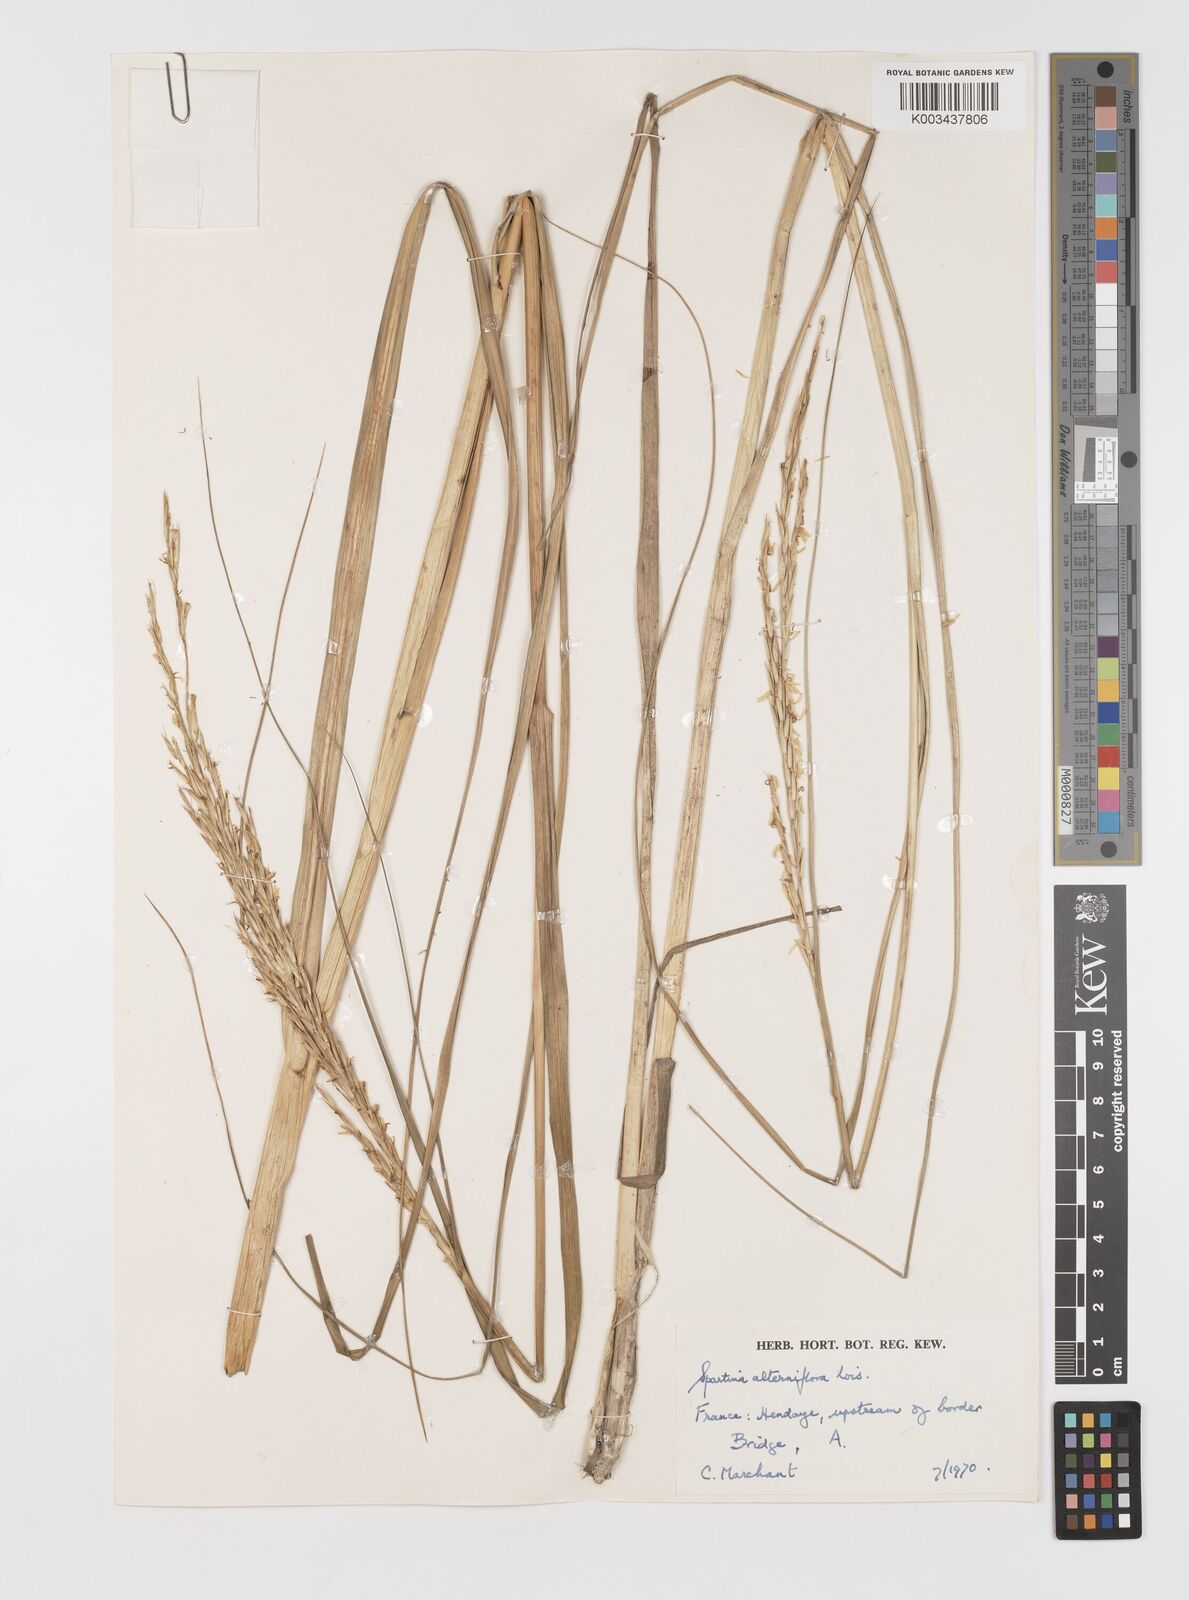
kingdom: Plantae
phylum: Tracheophyta
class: Liliopsida
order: Poales
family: Poaceae
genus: Sporobolus
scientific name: Sporobolus alterniflorus
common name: Atlantic cordgrass
